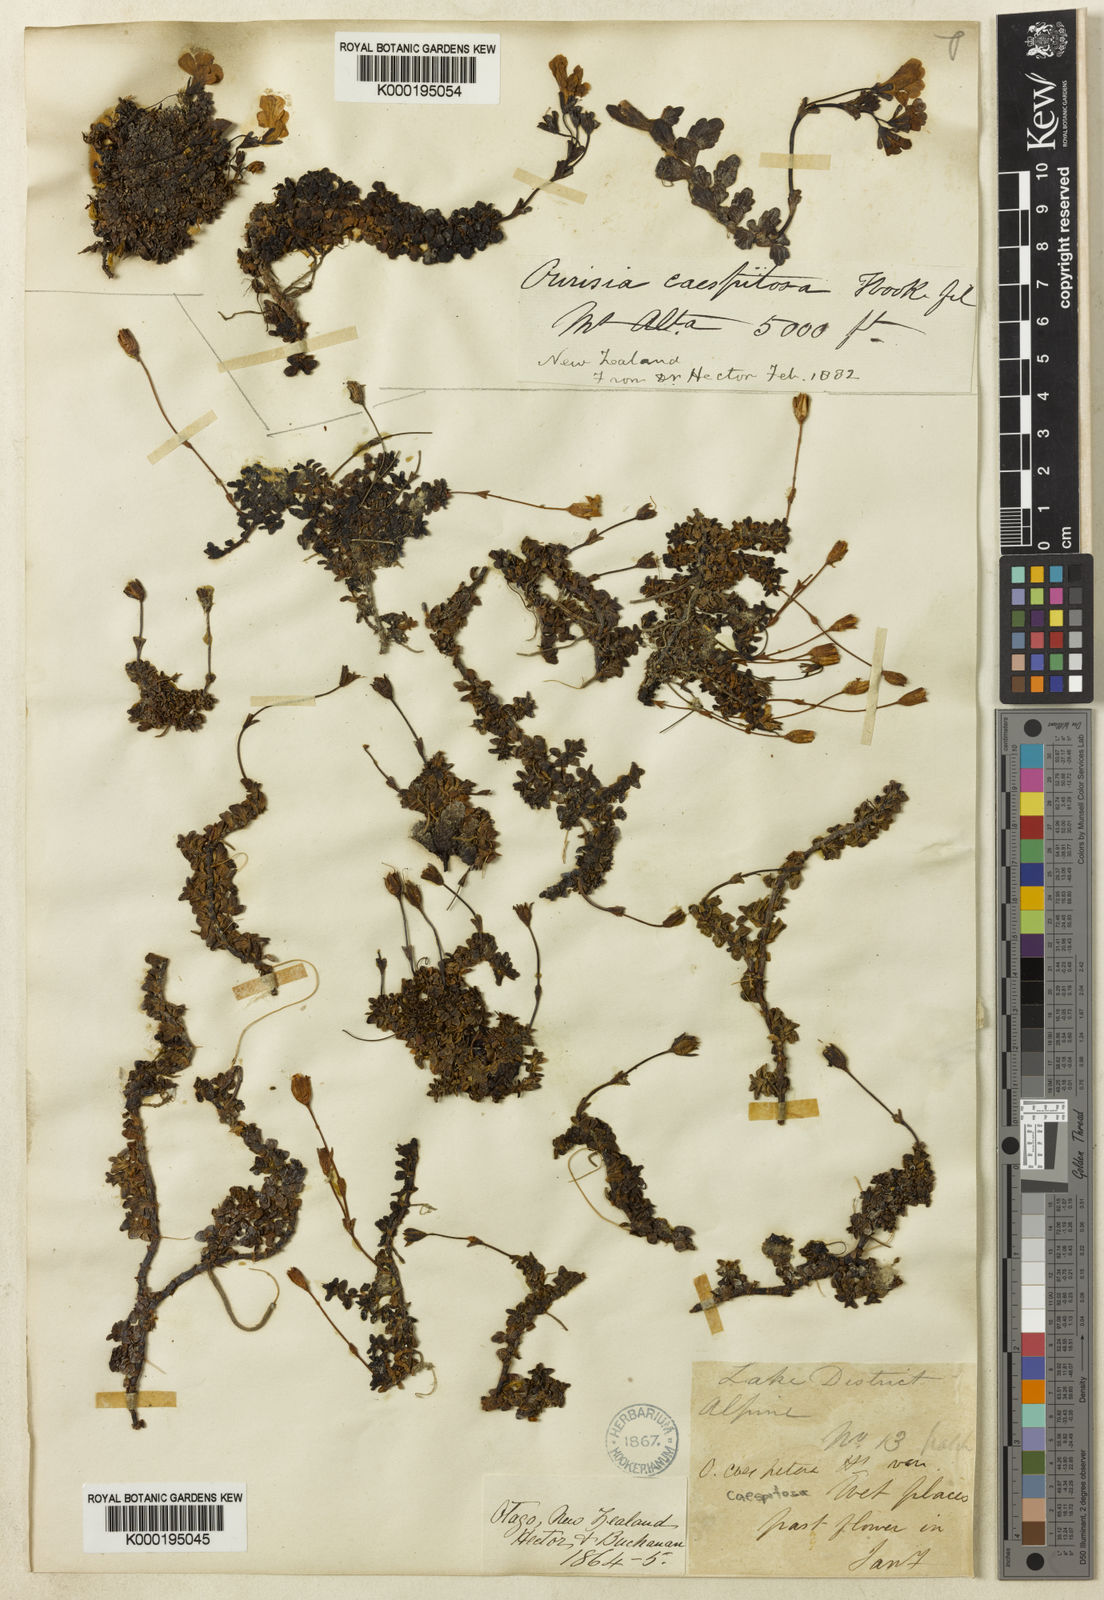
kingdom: Plantae
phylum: Tracheophyta
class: Magnoliopsida
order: Lamiales
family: Plantaginaceae
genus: Ourisia
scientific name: Ourisia caespitosa
